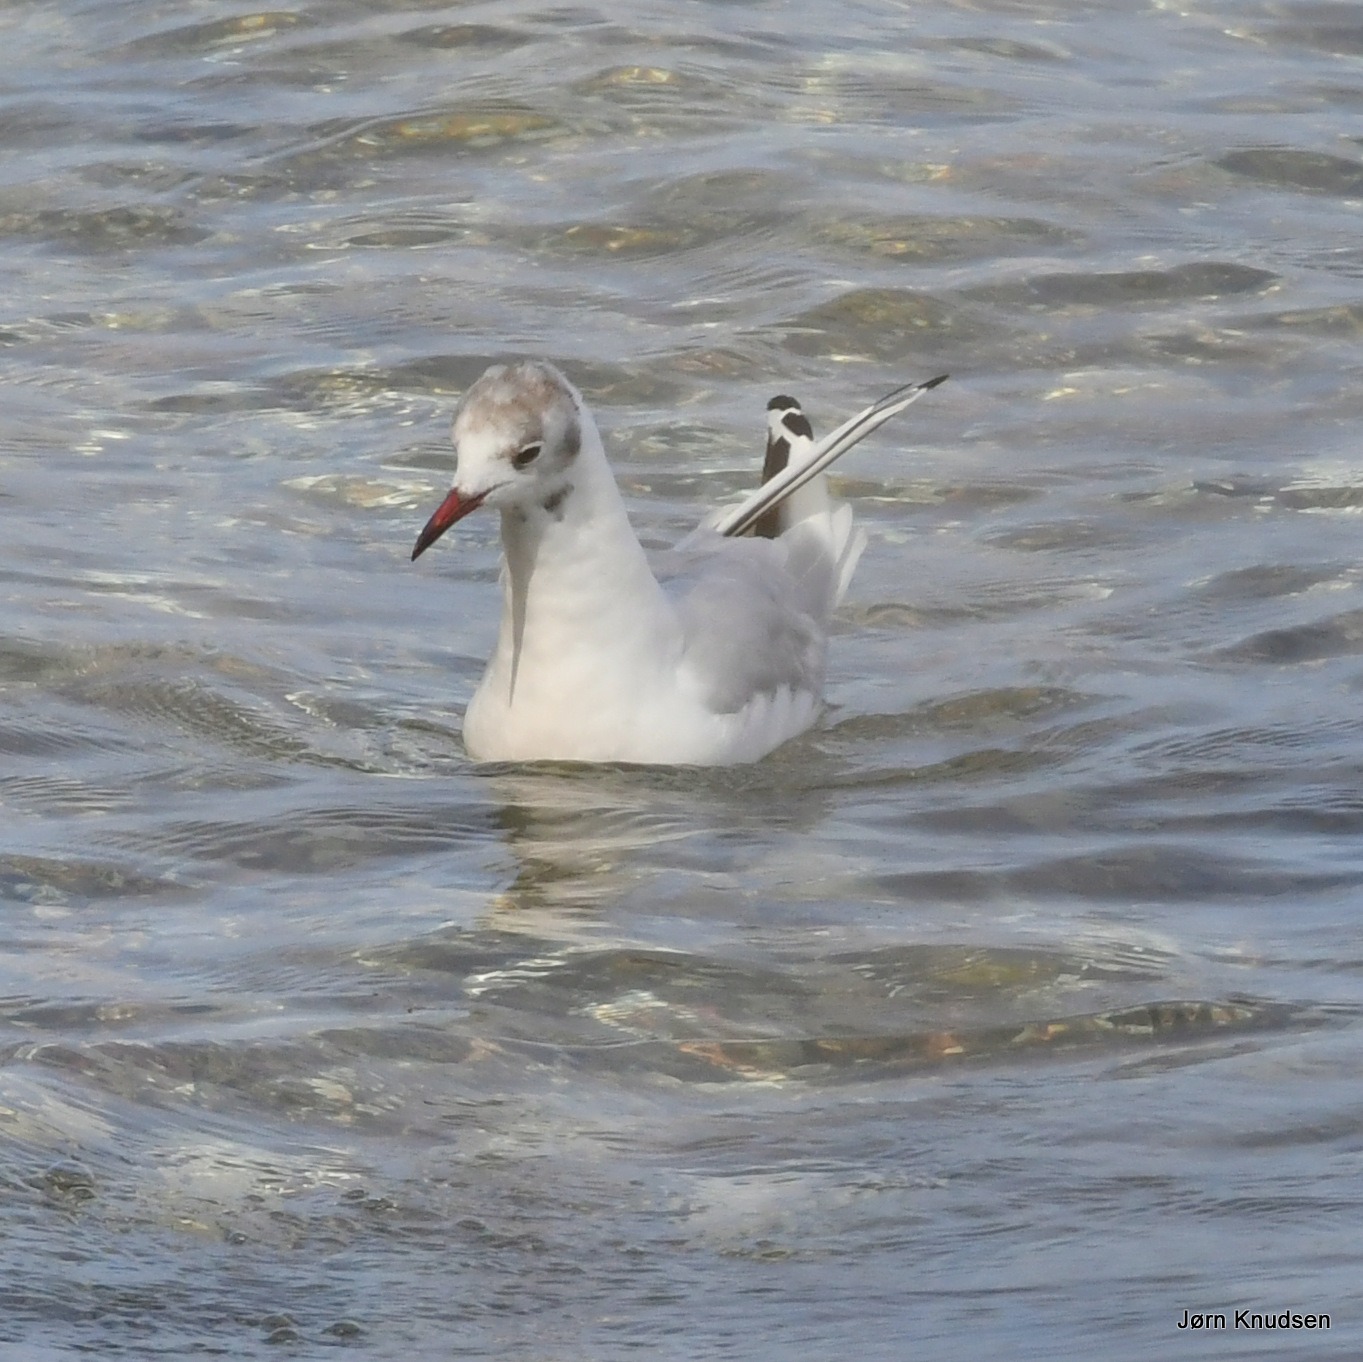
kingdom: Animalia
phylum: Chordata
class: Aves
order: Charadriiformes
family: Laridae
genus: Chroicocephalus
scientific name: Chroicocephalus ridibundus
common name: Hættemåge
